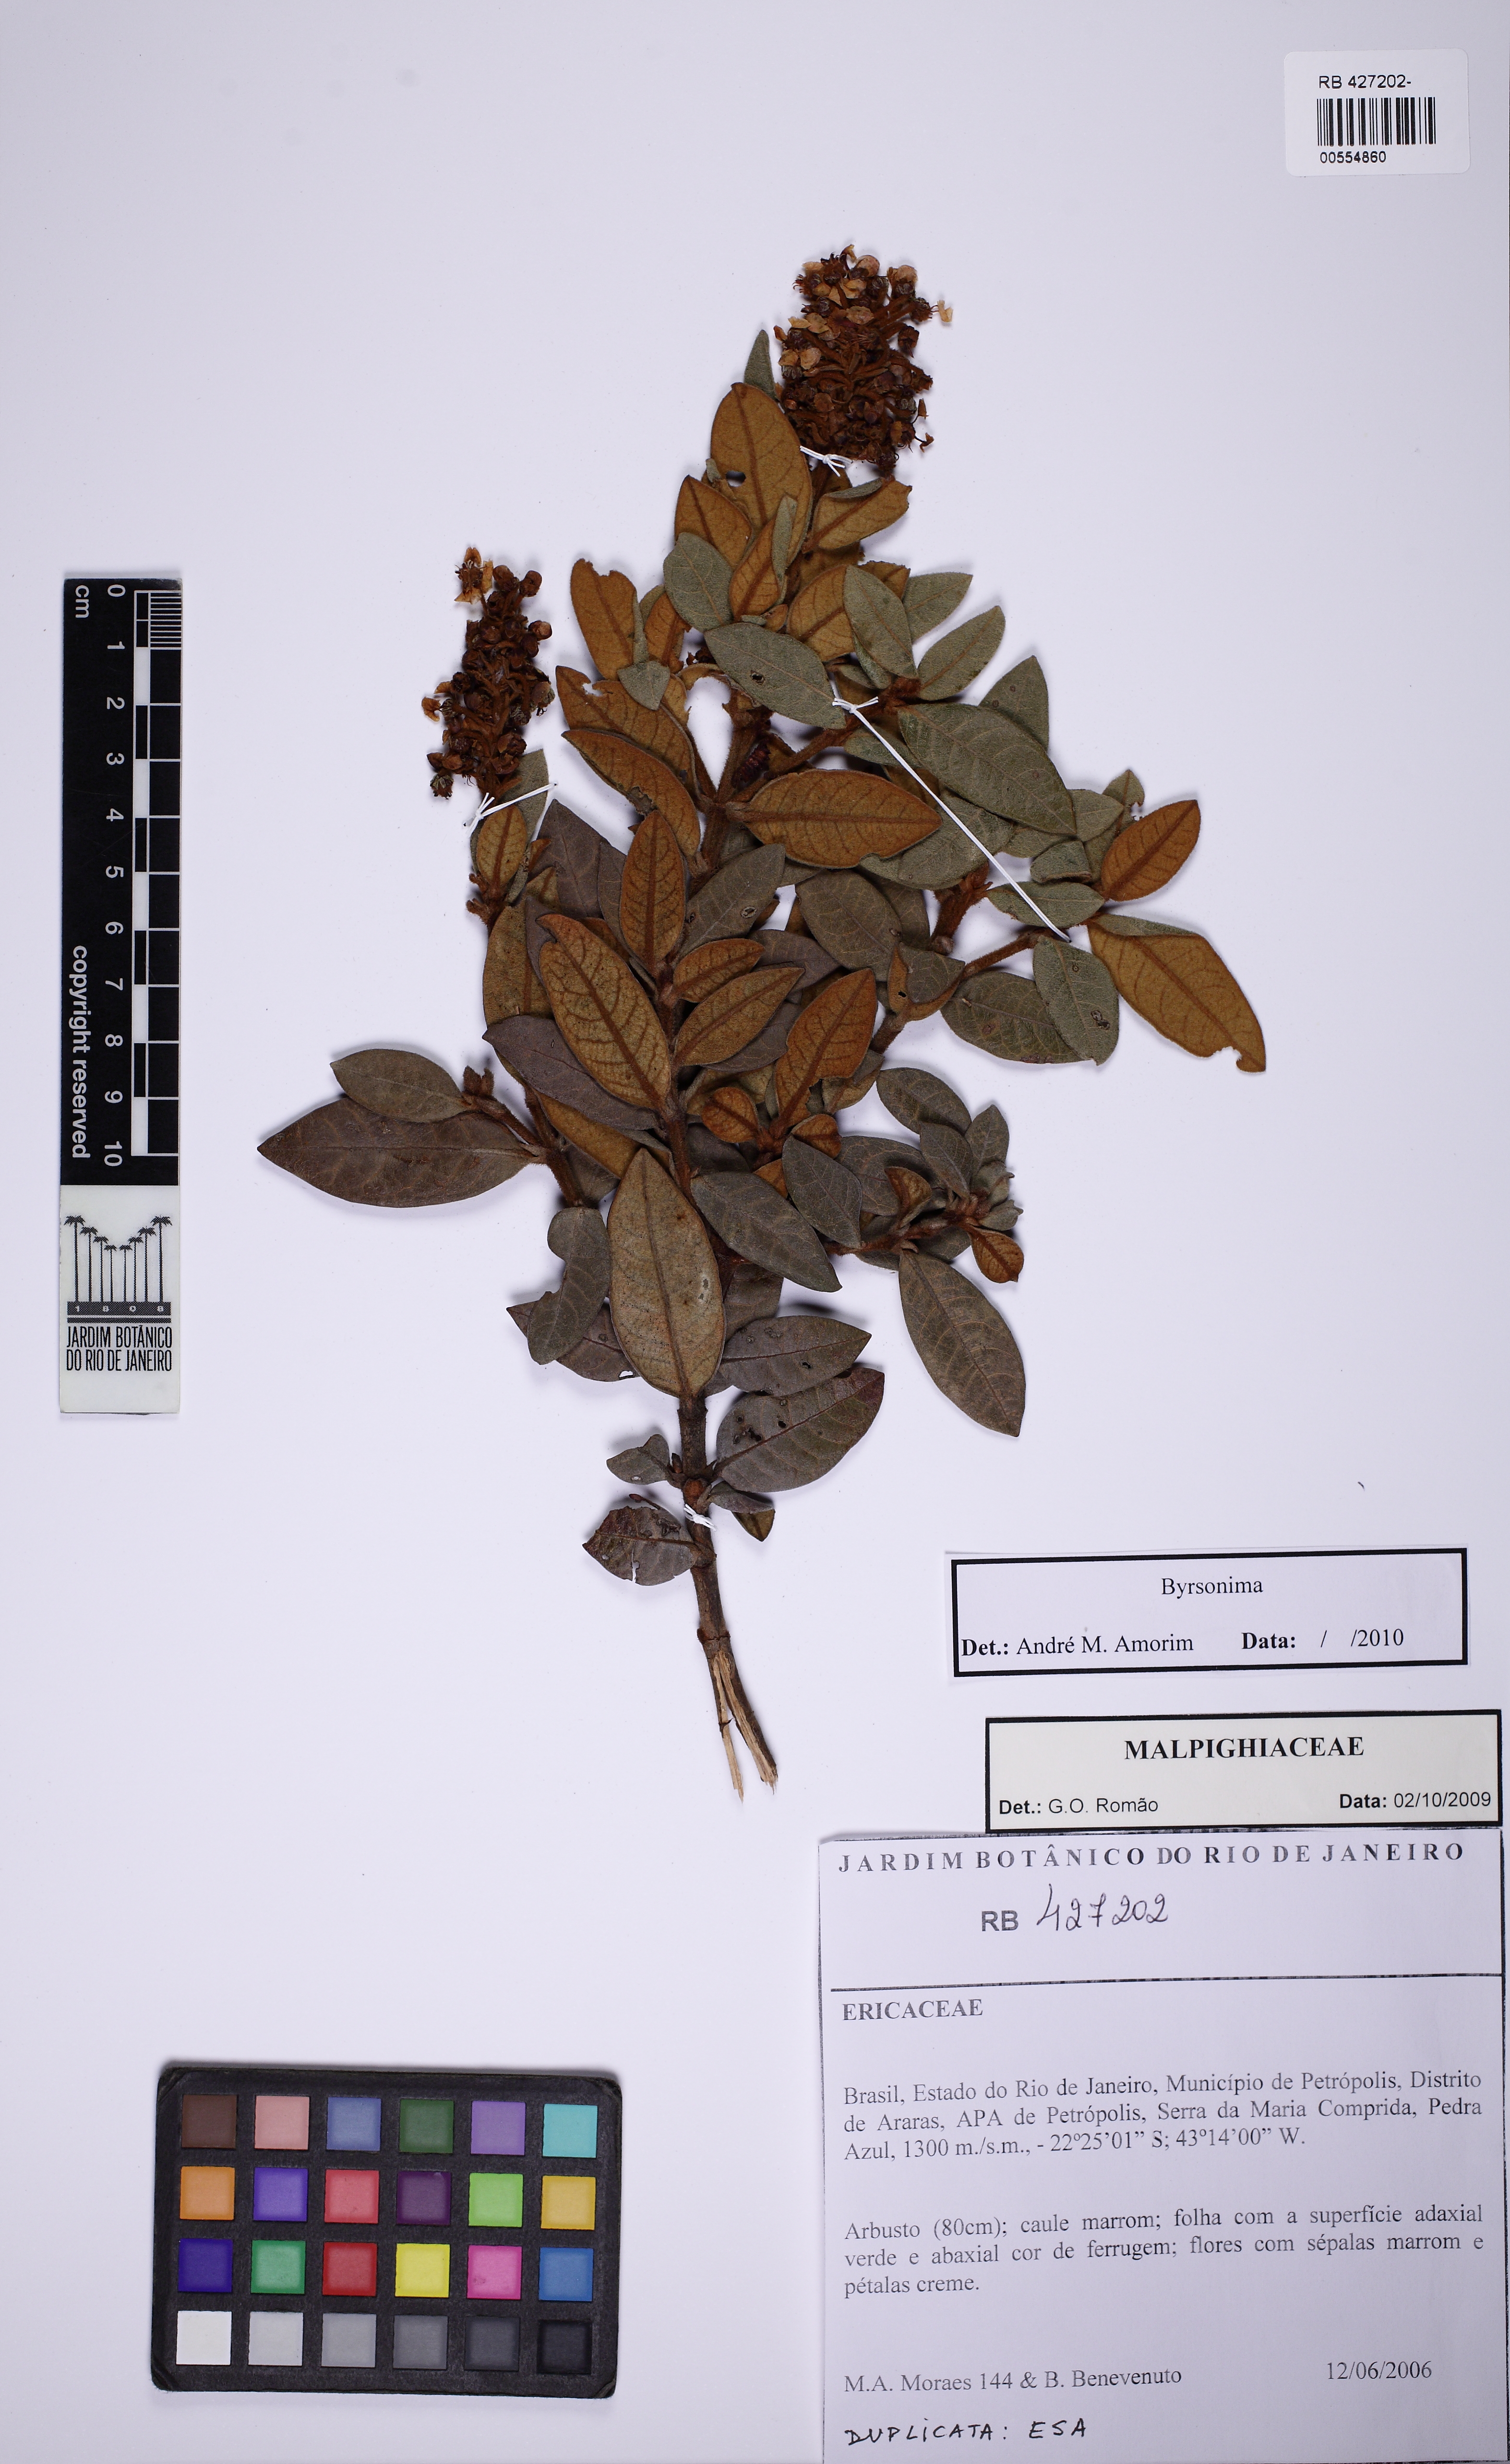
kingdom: Plantae
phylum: Tracheophyta
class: Magnoliopsida
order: Malpighiales
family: Malpighiaceae
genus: Byrsonima
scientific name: Byrsonima variabilis
